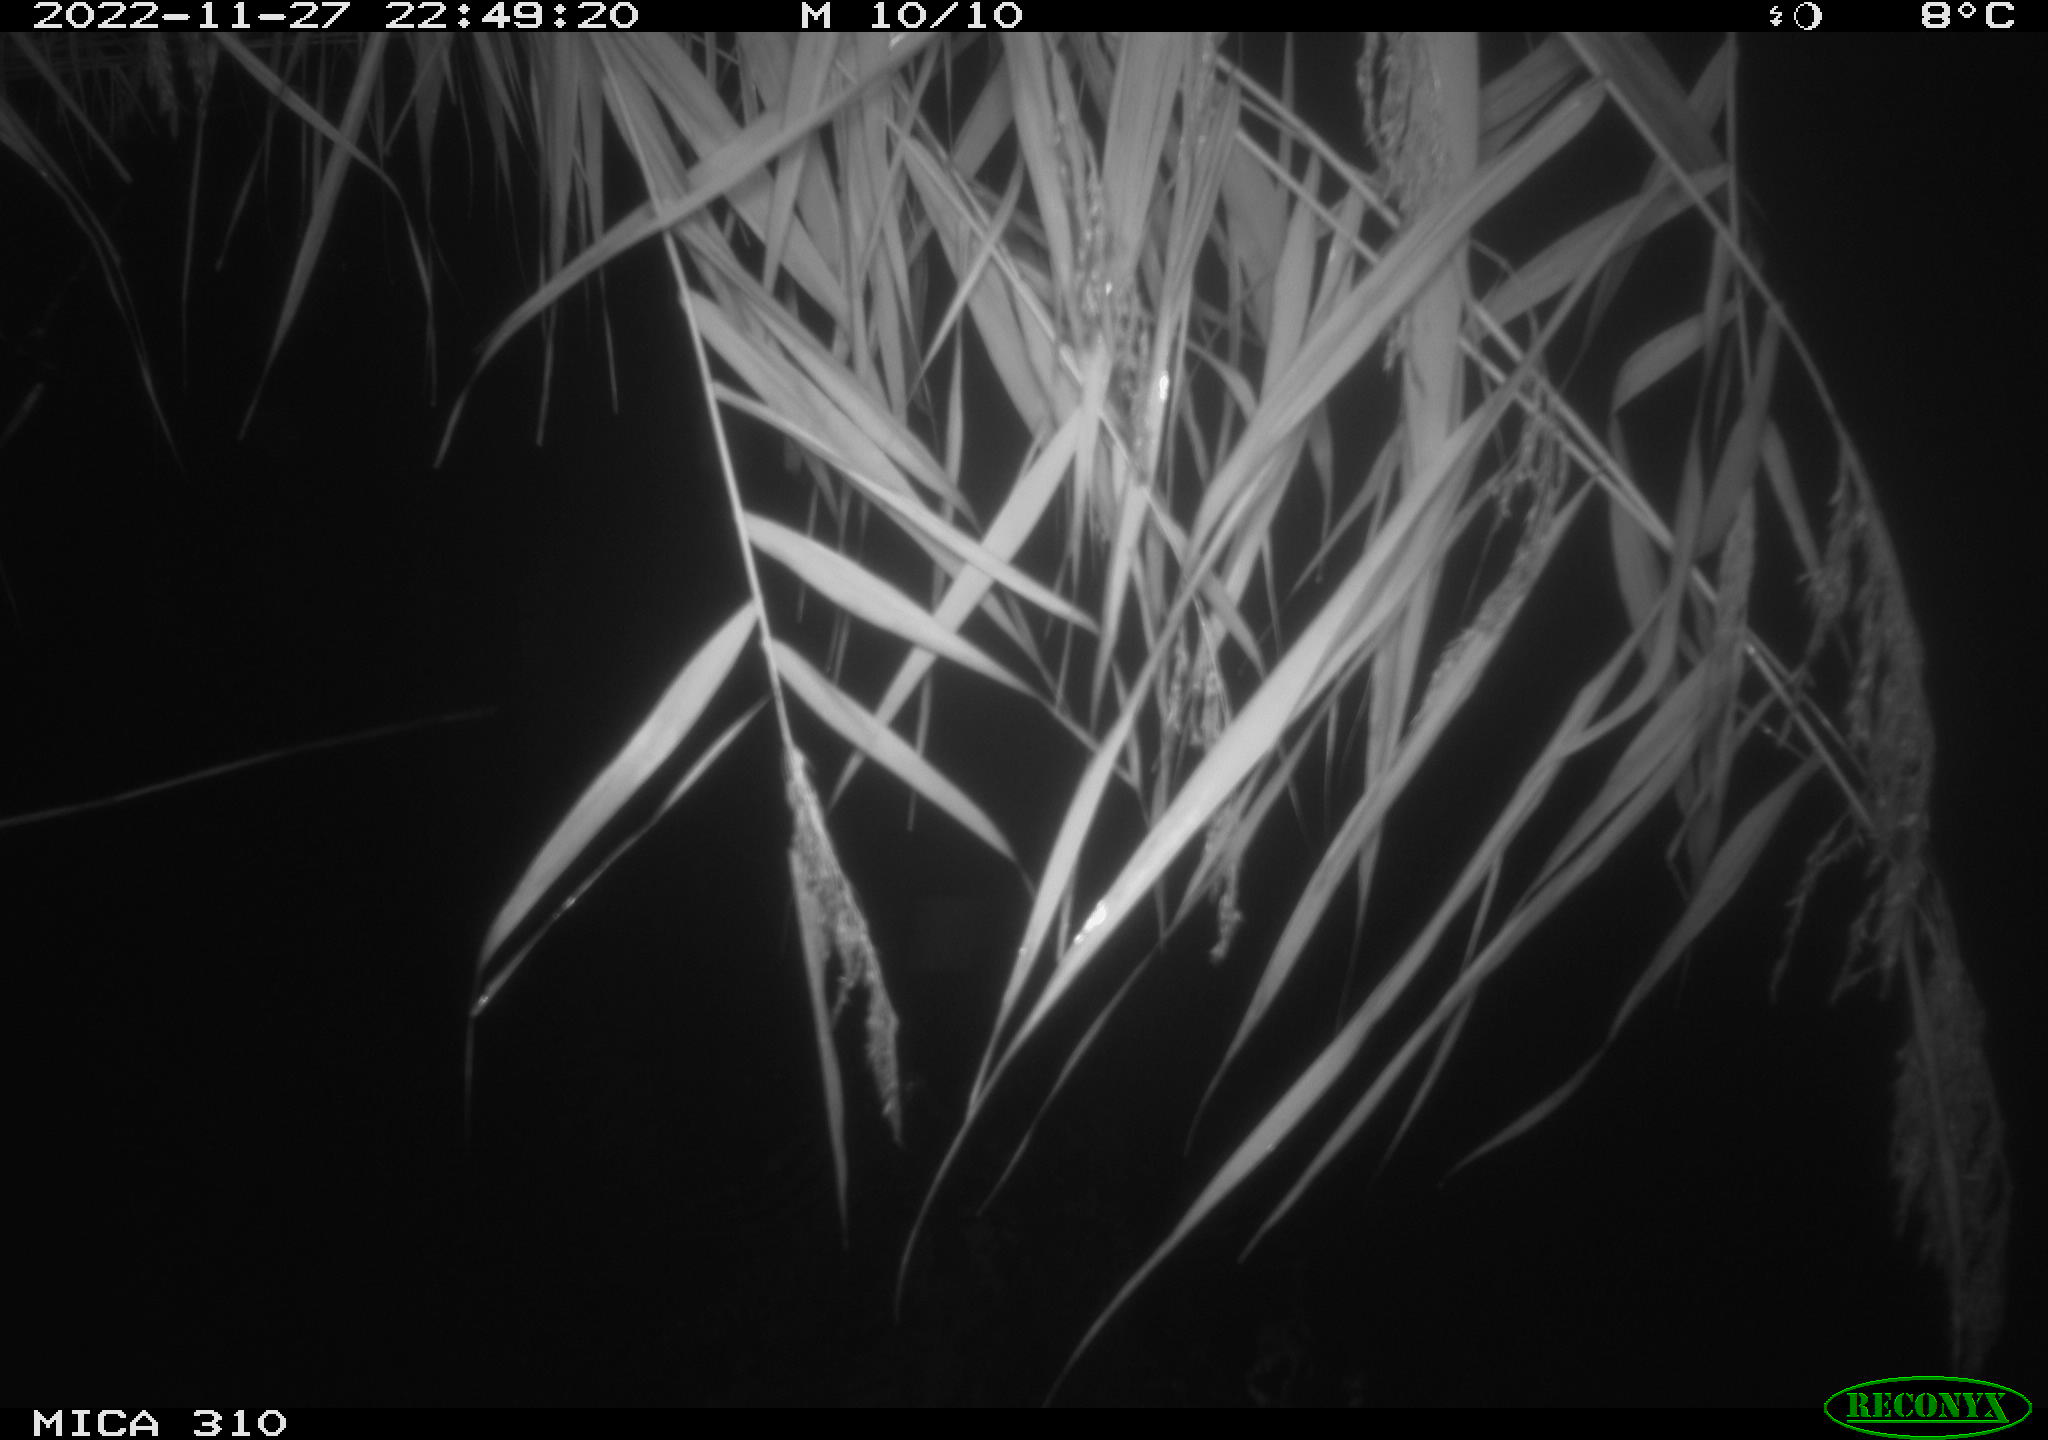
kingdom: Animalia
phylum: Chordata
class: Mammalia
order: Rodentia
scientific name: Rodentia
